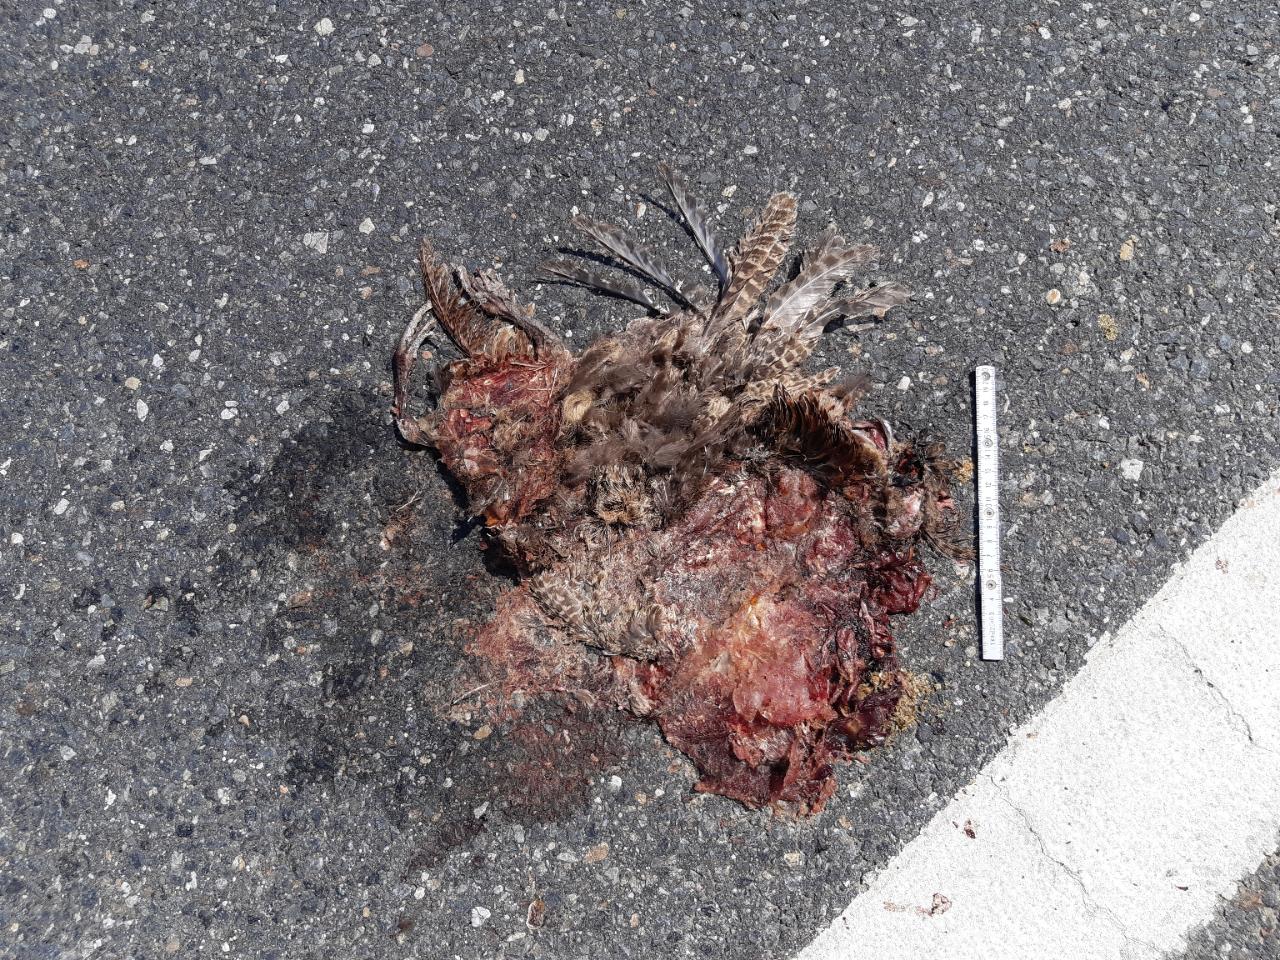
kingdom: Animalia
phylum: Chordata
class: Aves
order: Galliformes
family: Phasianidae
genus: Phasianus
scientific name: Phasianus colchicus
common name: Common pheasant
